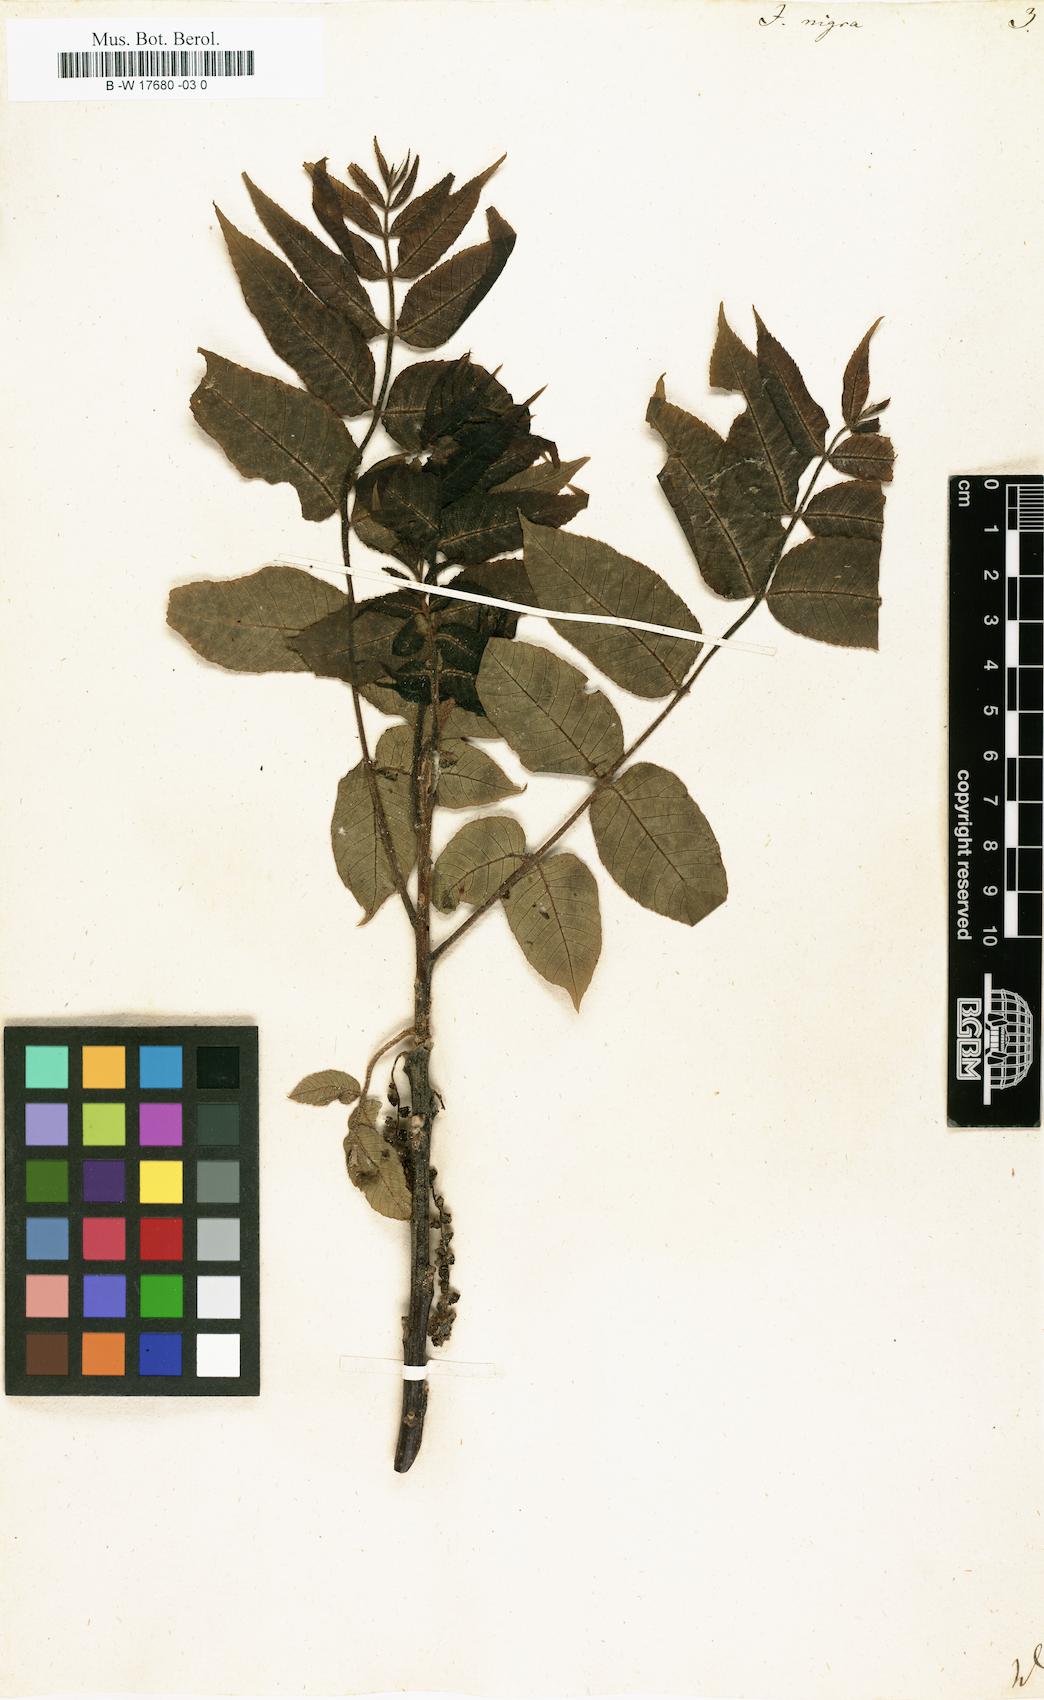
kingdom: Plantae
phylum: Tracheophyta
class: Magnoliopsida
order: Fagales
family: Juglandaceae
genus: Juglans
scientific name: Juglans nigra
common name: Black walnut
